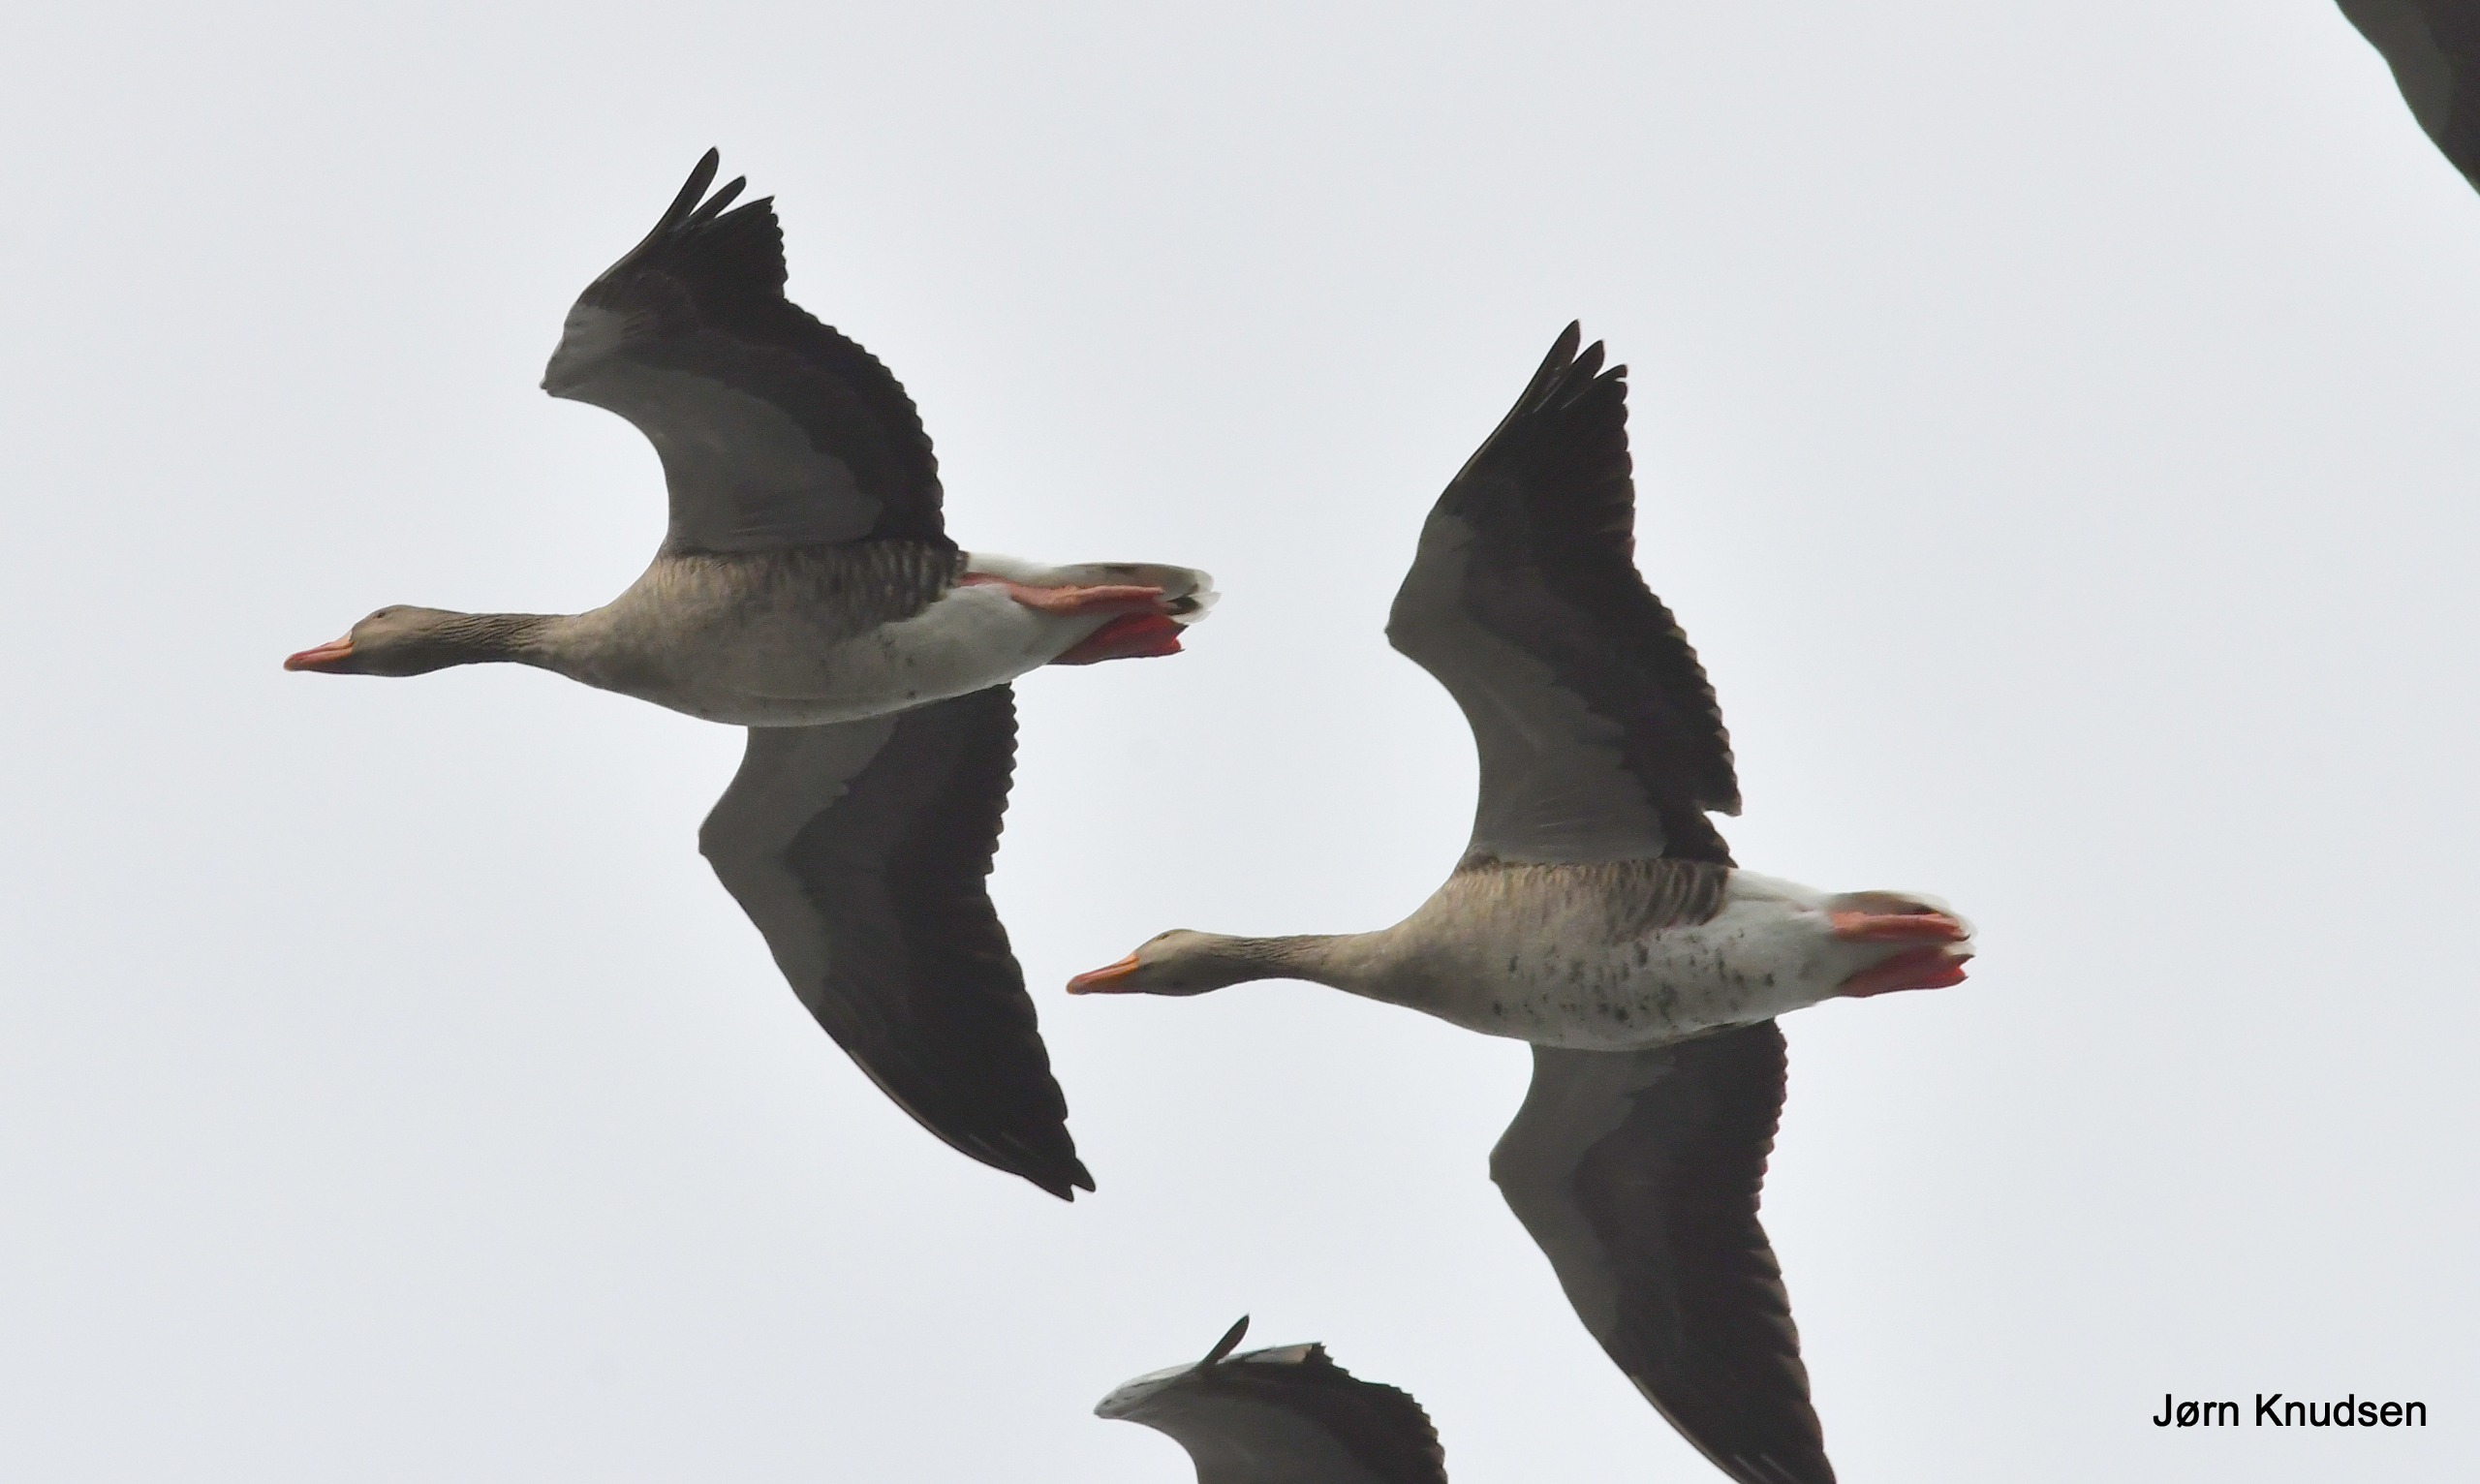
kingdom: Animalia
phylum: Chordata
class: Aves
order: Anseriformes
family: Anatidae
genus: Anser
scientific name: Anser anser
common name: Grågås
